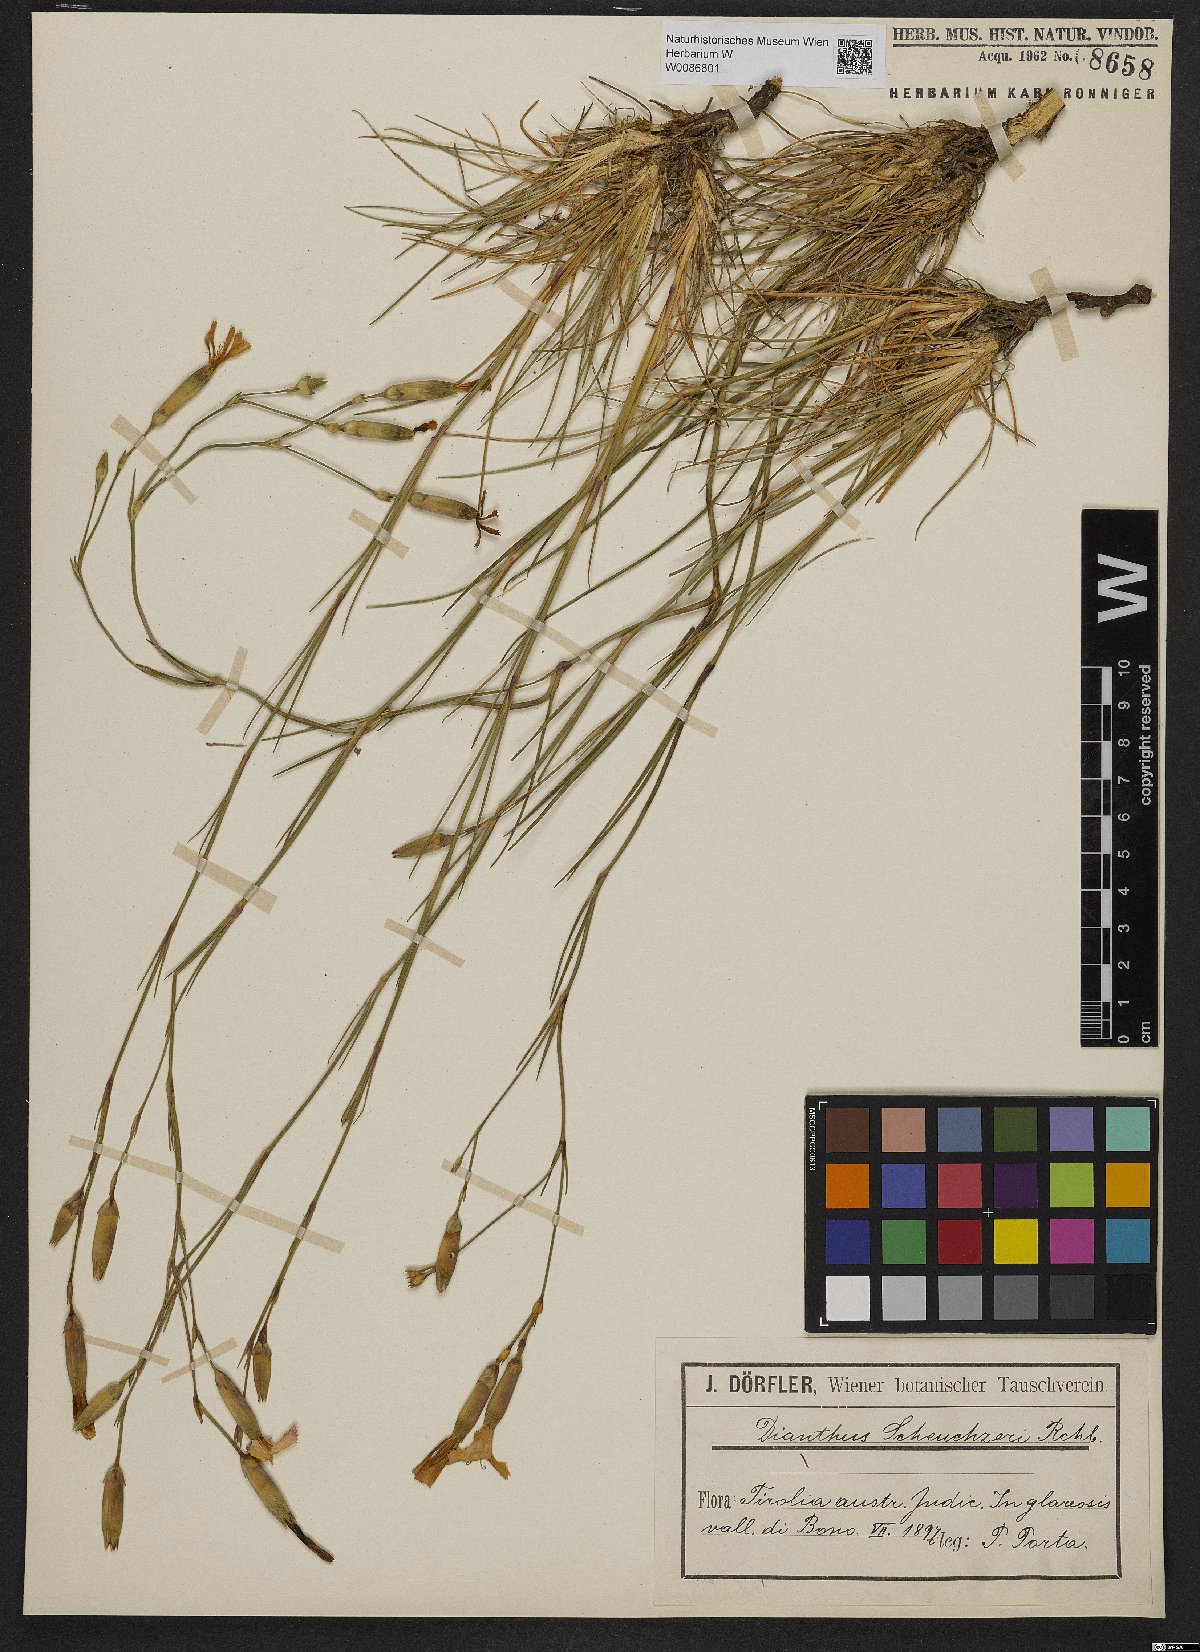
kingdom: Plantae
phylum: Tracheophyta
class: Magnoliopsida
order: Caryophyllales
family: Caryophyllaceae
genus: Dianthus
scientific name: Dianthus sylvestris
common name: Wood pink
